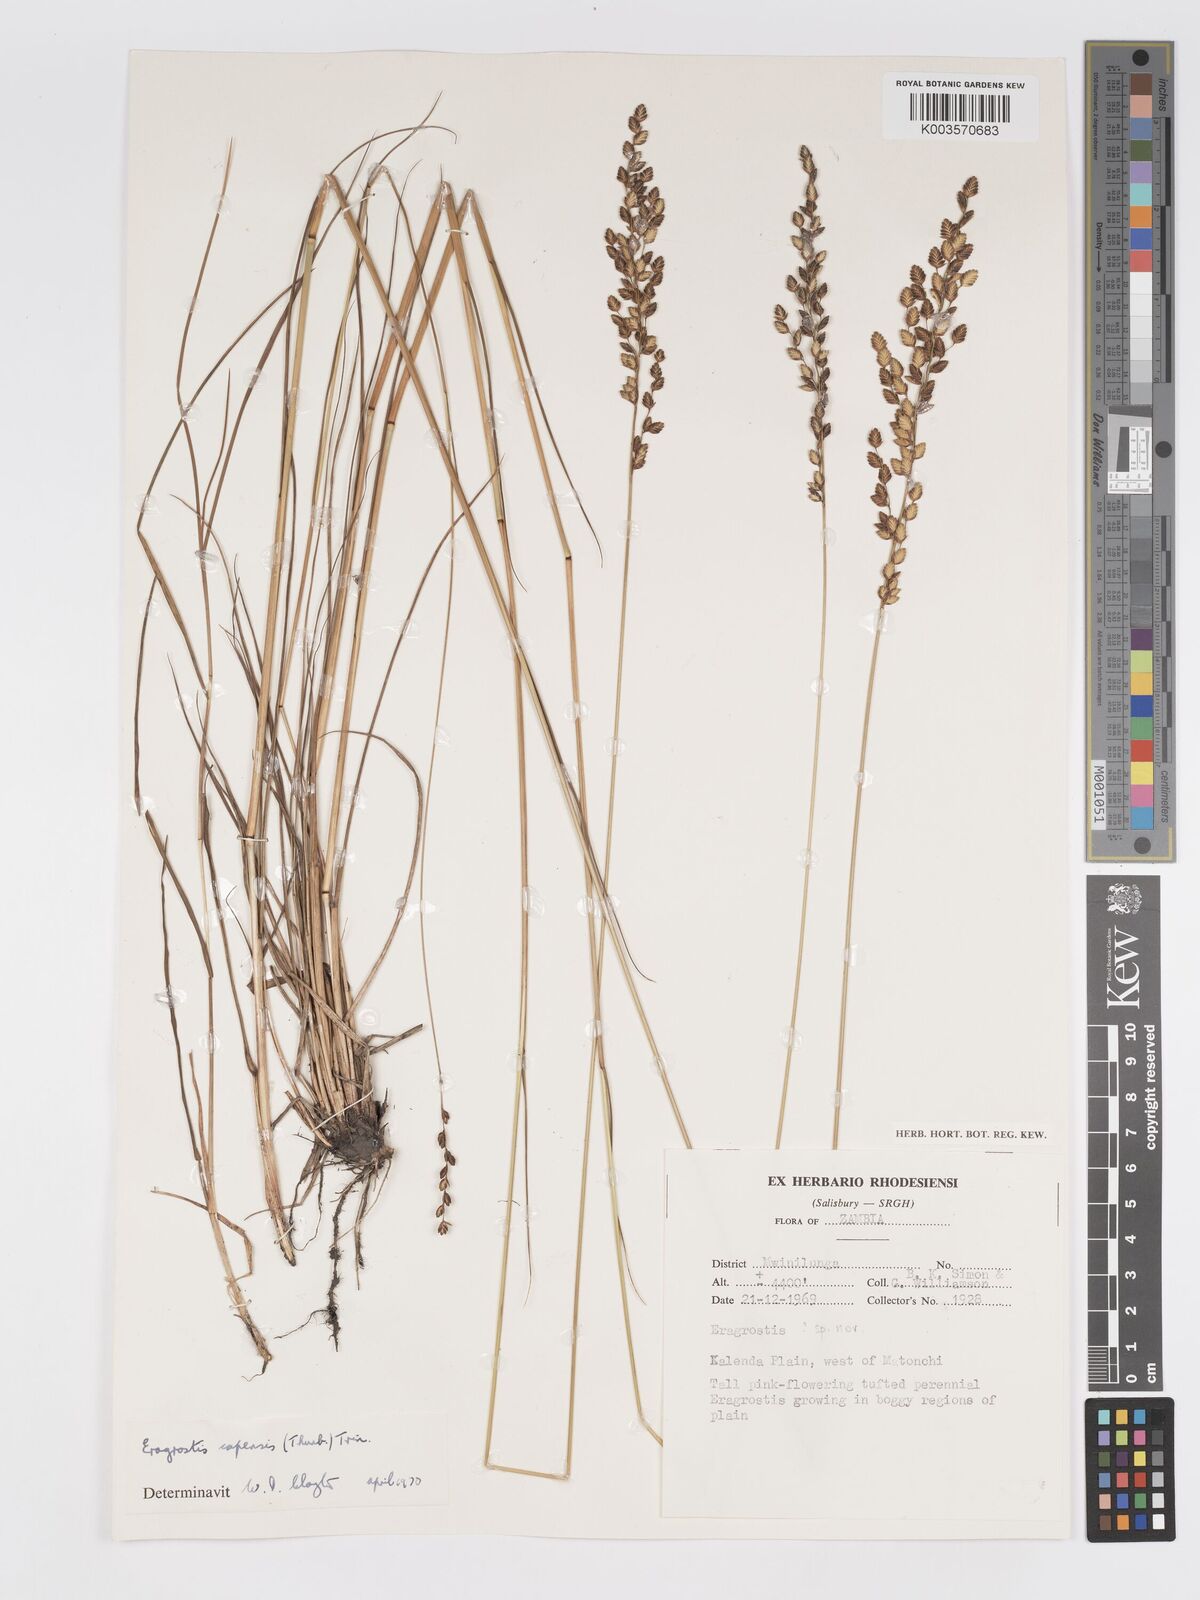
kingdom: Plantae
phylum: Tracheophyta
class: Liliopsida
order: Poales
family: Poaceae
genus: Eragrostis
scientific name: Eragrostis capensis
